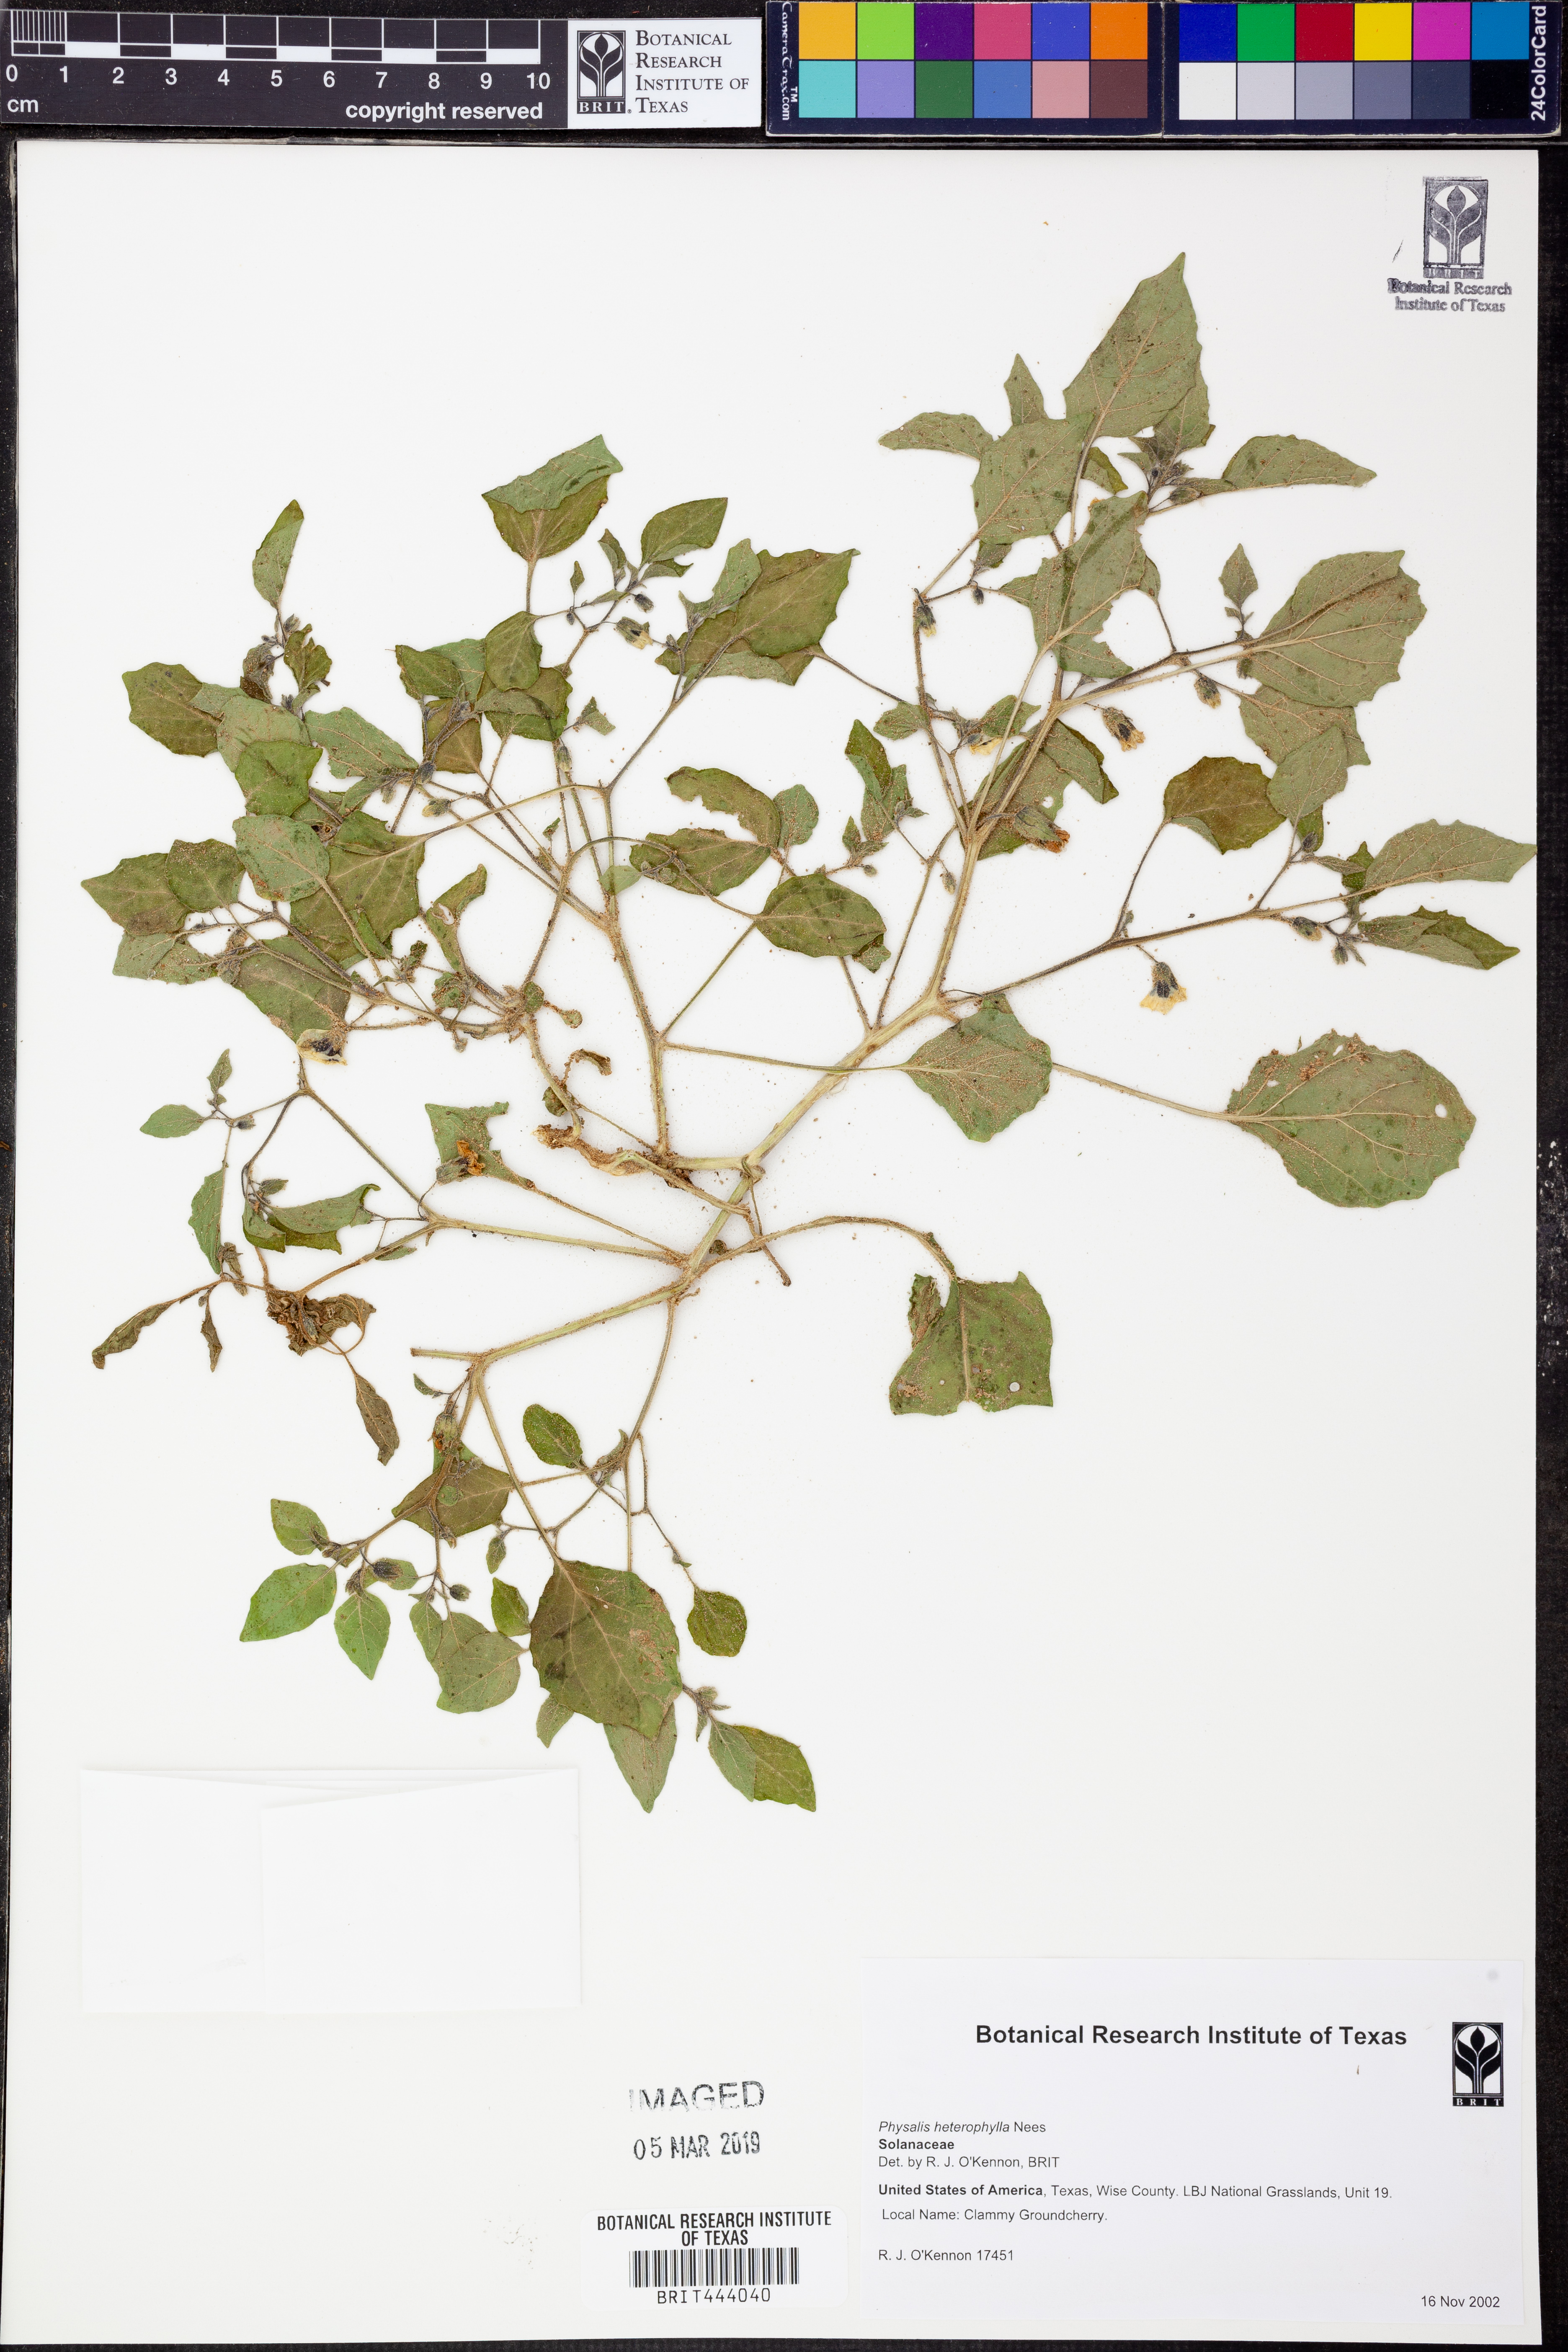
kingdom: Plantae
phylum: Tracheophyta
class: Magnoliopsida
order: Solanales
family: Solanaceae
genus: Physalis
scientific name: Physalis heterophylla
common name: Clammy ground-cherry
